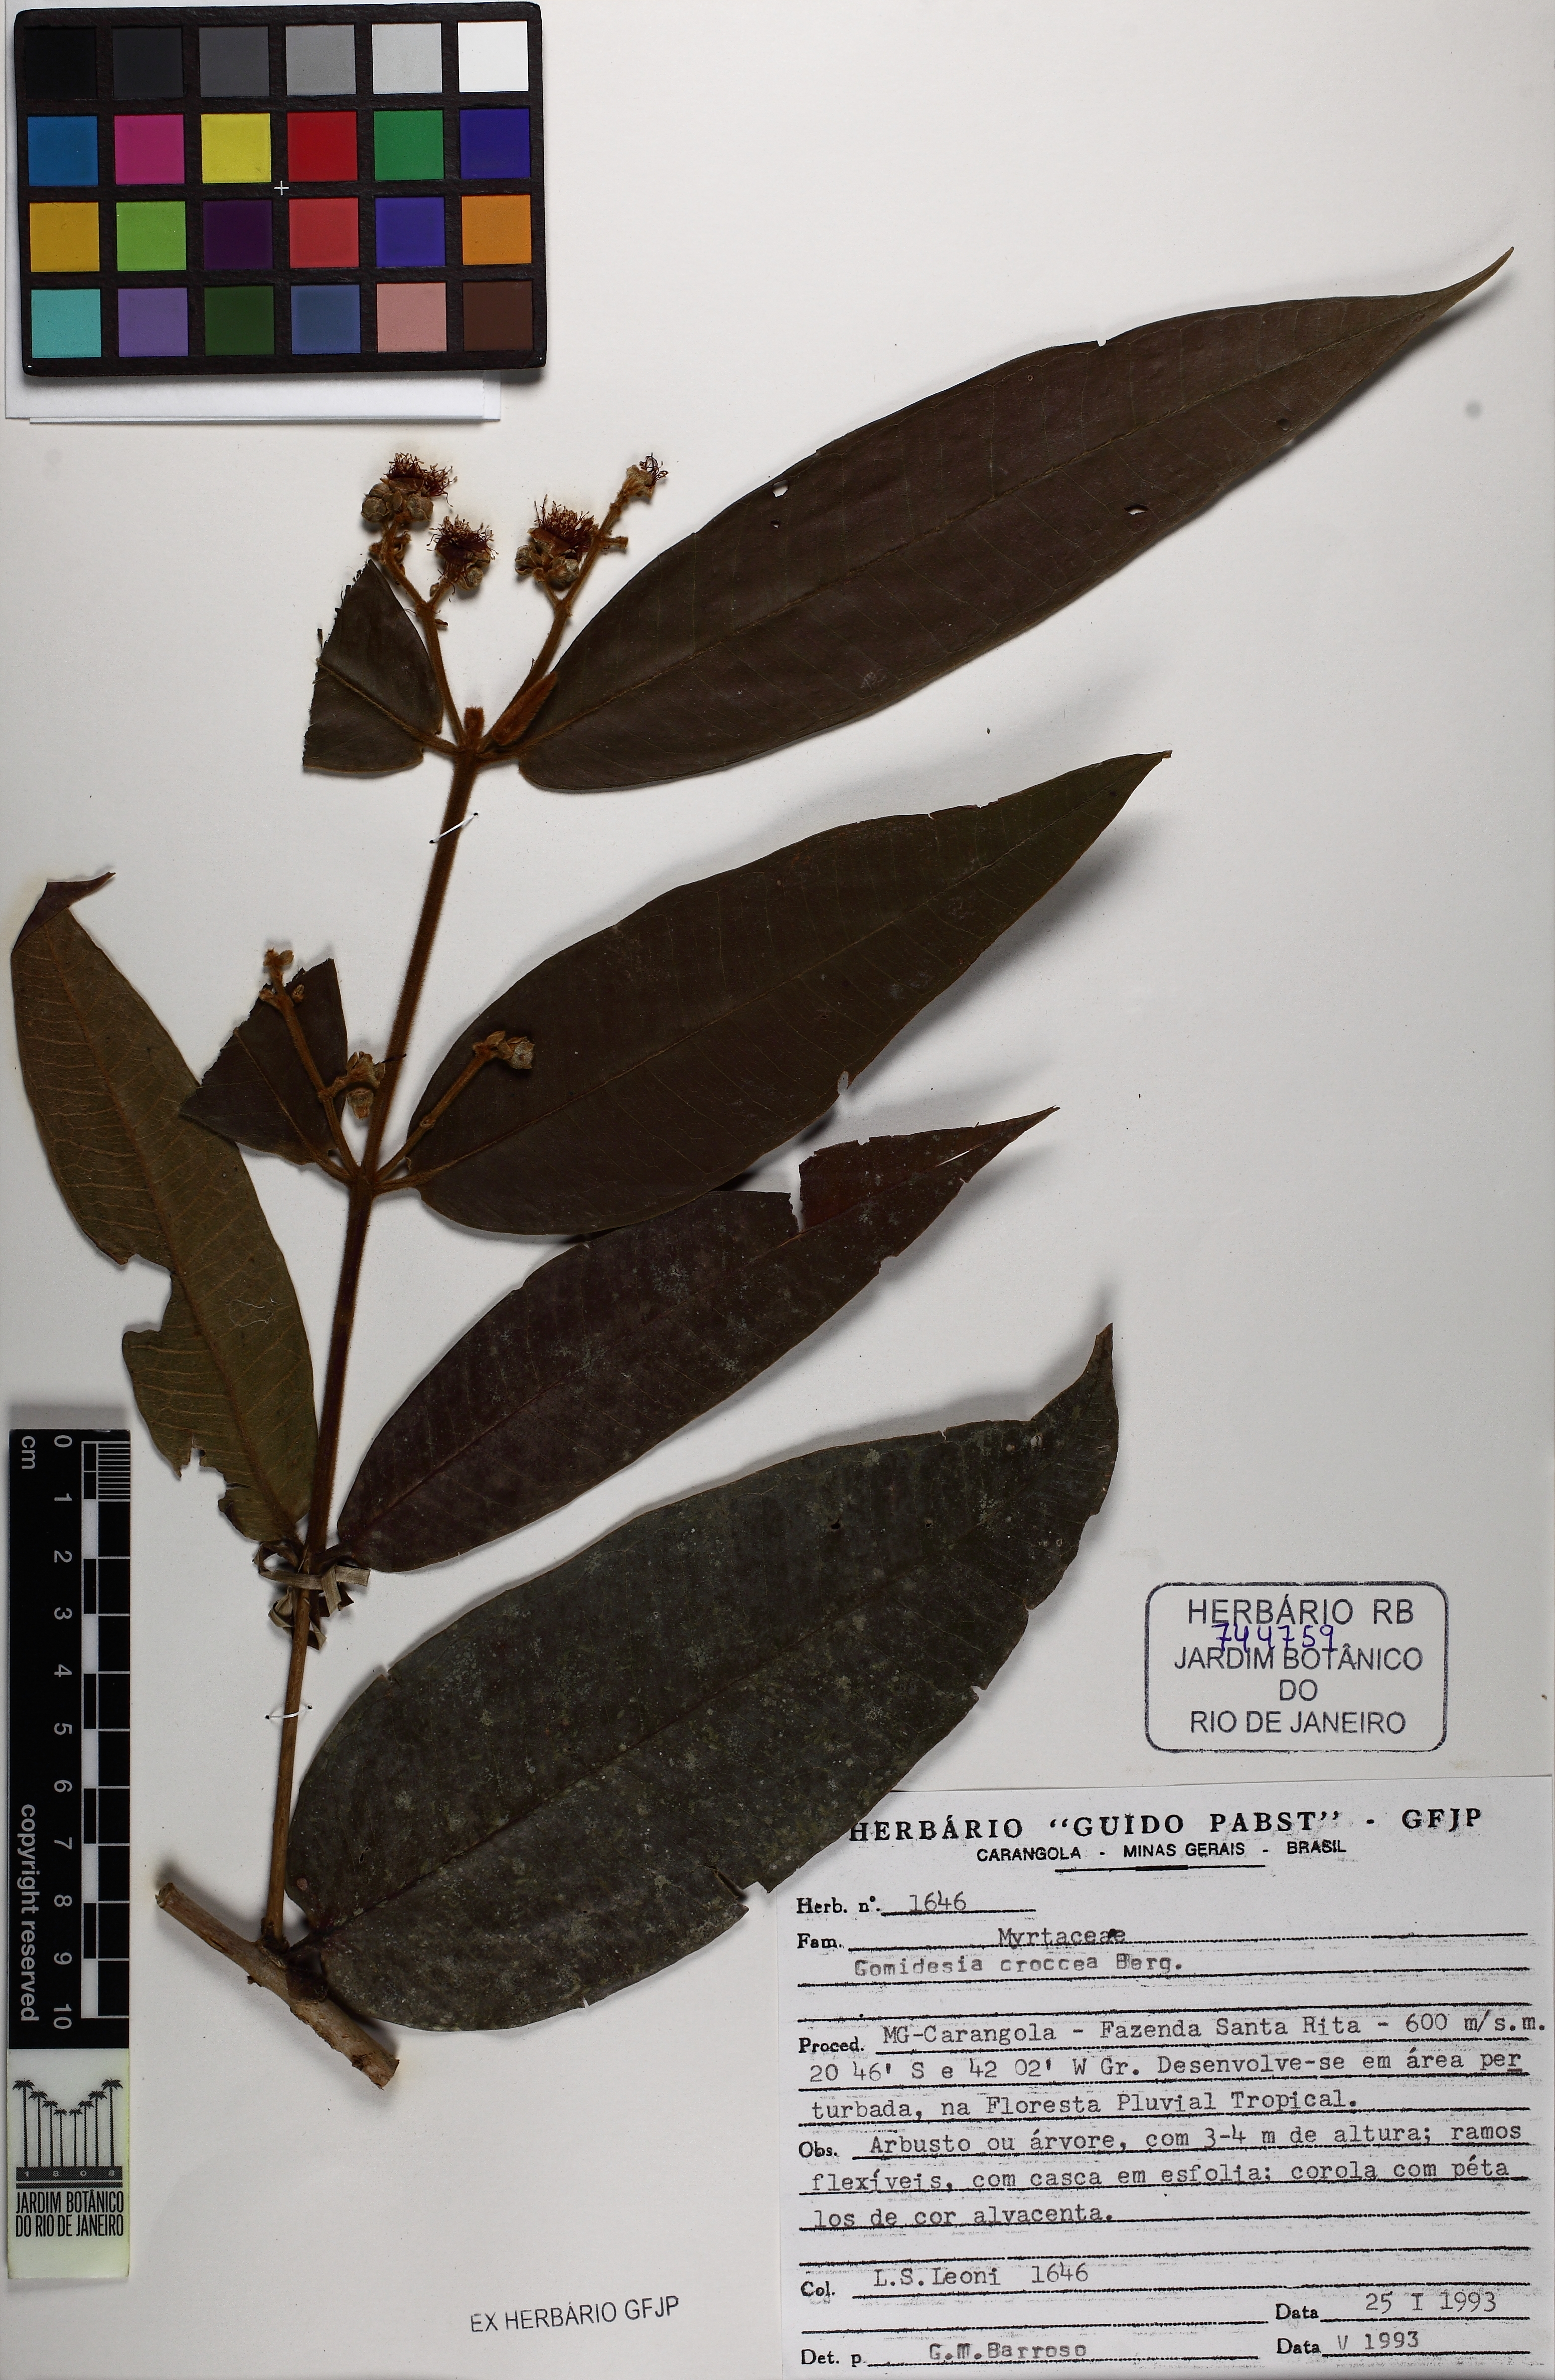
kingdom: Plantae
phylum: Tracheophyta
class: Magnoliopsida
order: Myrtales
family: Myrtaceae
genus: Myrcia
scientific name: Myrcia amplexicaulis
